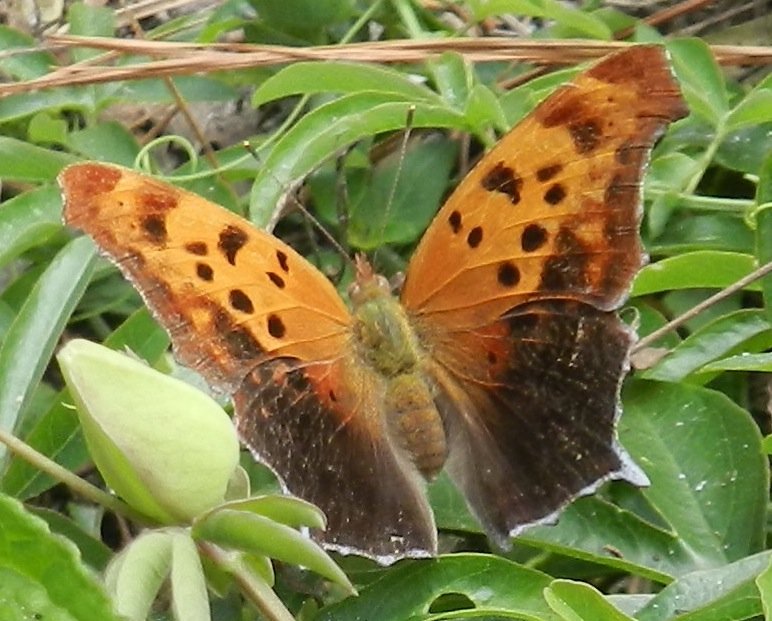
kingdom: Animalia
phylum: Arthropoda
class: Insecta
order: Lepidoptera
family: Nymphalidae
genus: Polygonia
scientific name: Polygonia interrogationis
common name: Question Mark
